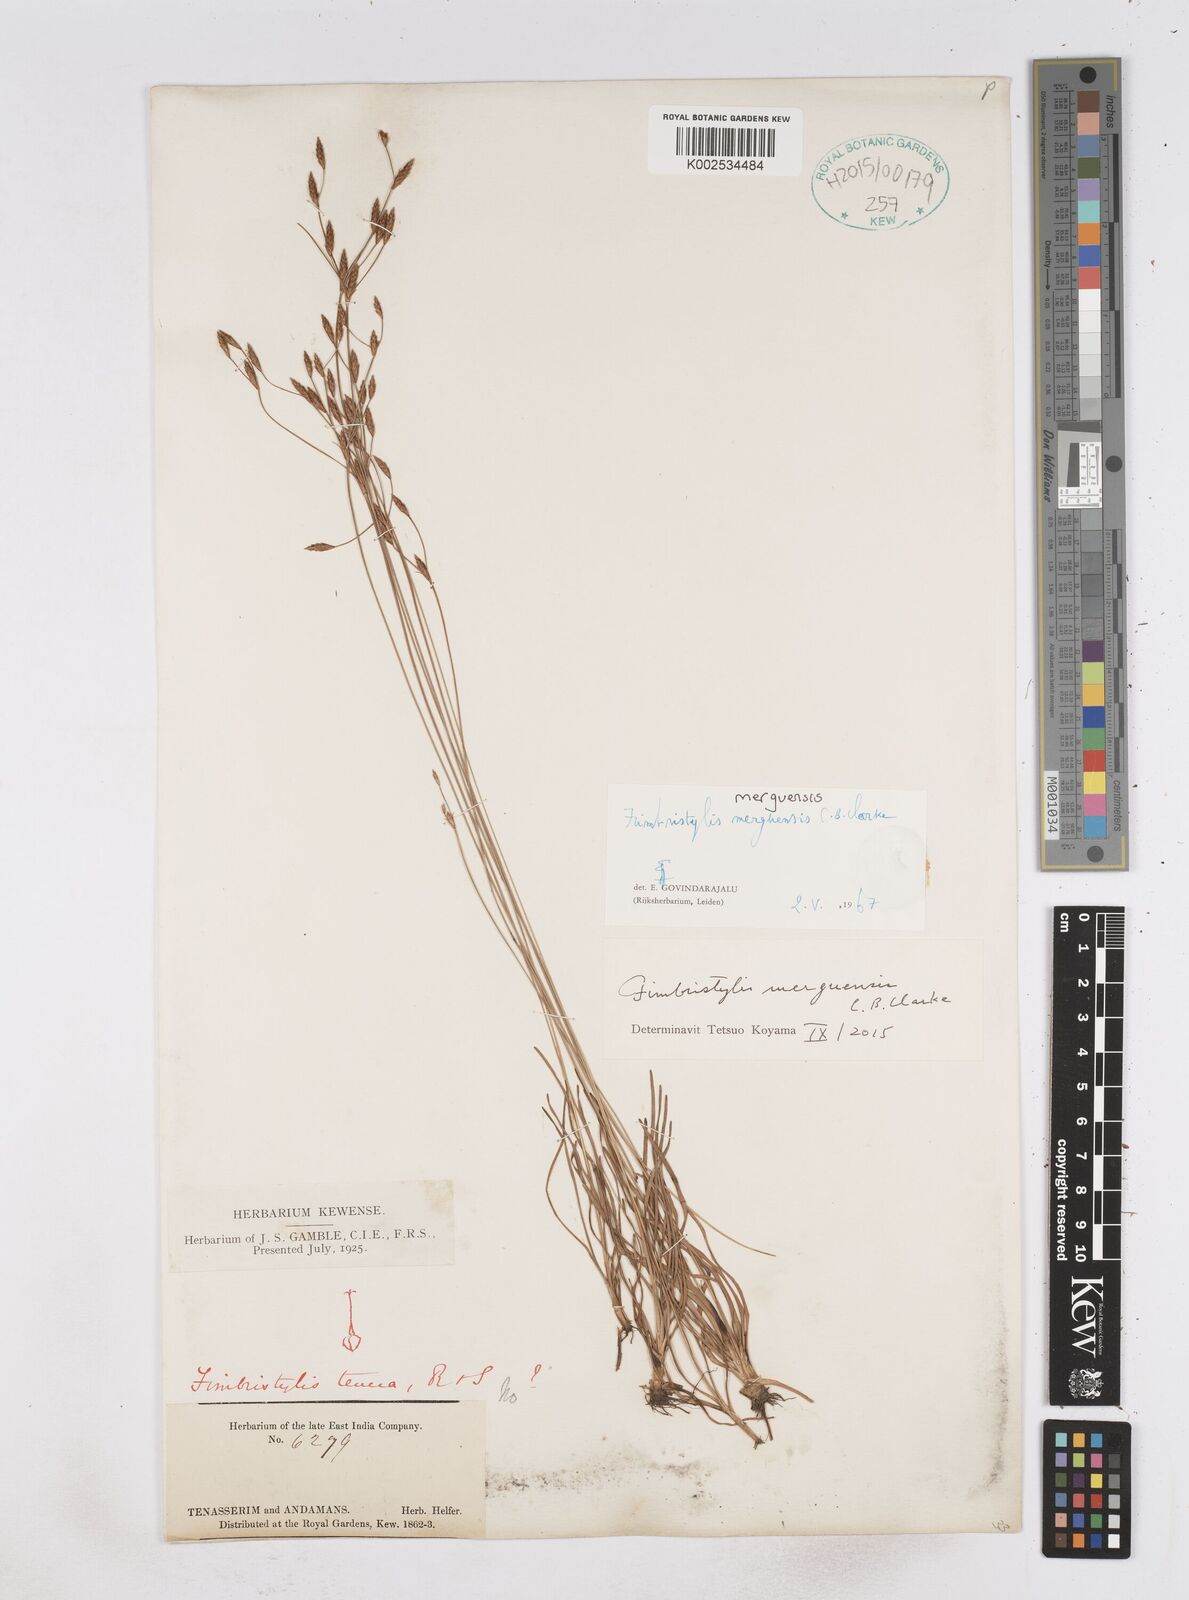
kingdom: Plantae
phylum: Tracheophyta
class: Liliopsida
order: Poales
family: Cyperaceae
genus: Fimbristylis
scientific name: Fimbristylis merguensis
